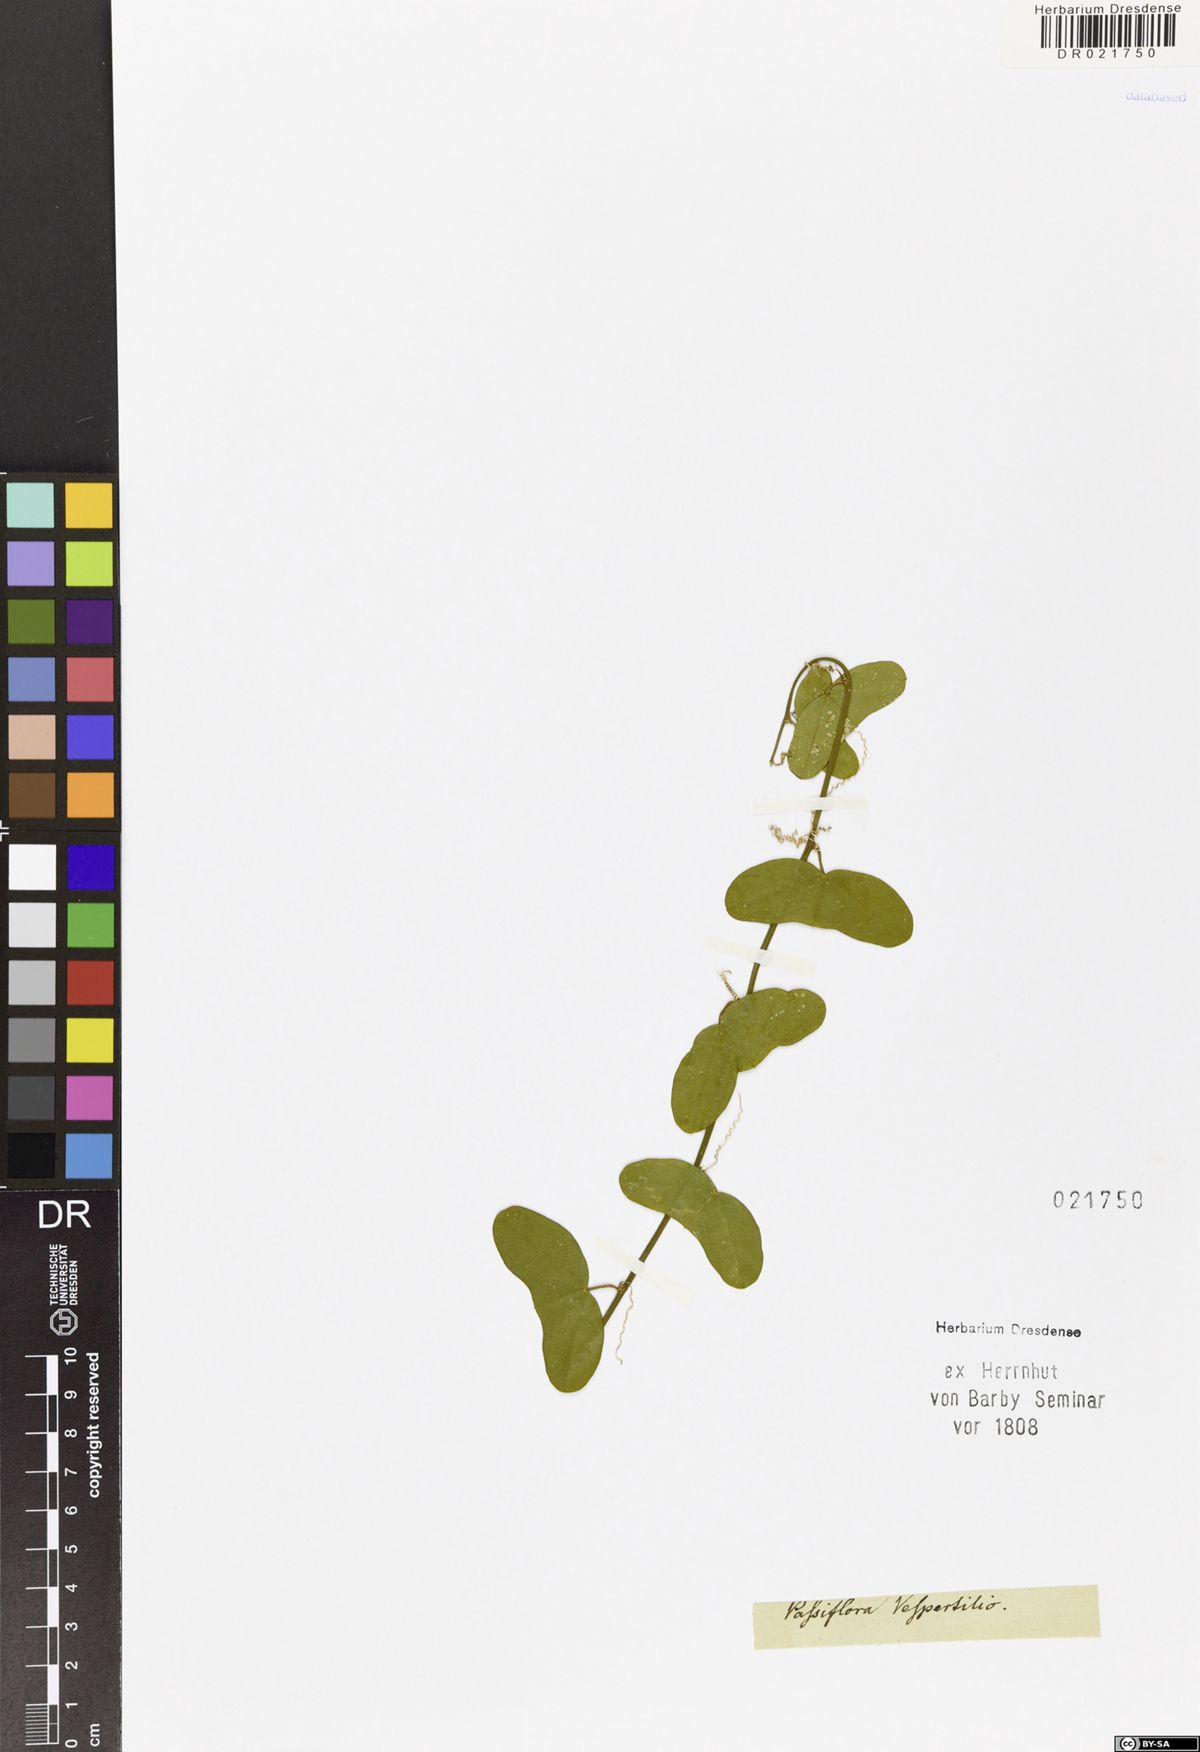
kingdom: Plantae
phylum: Tracheophyta
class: Magnoliopsida
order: Malpighiales
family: Passifloraceae
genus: Passiflora
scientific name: Passiflora vespertilio
